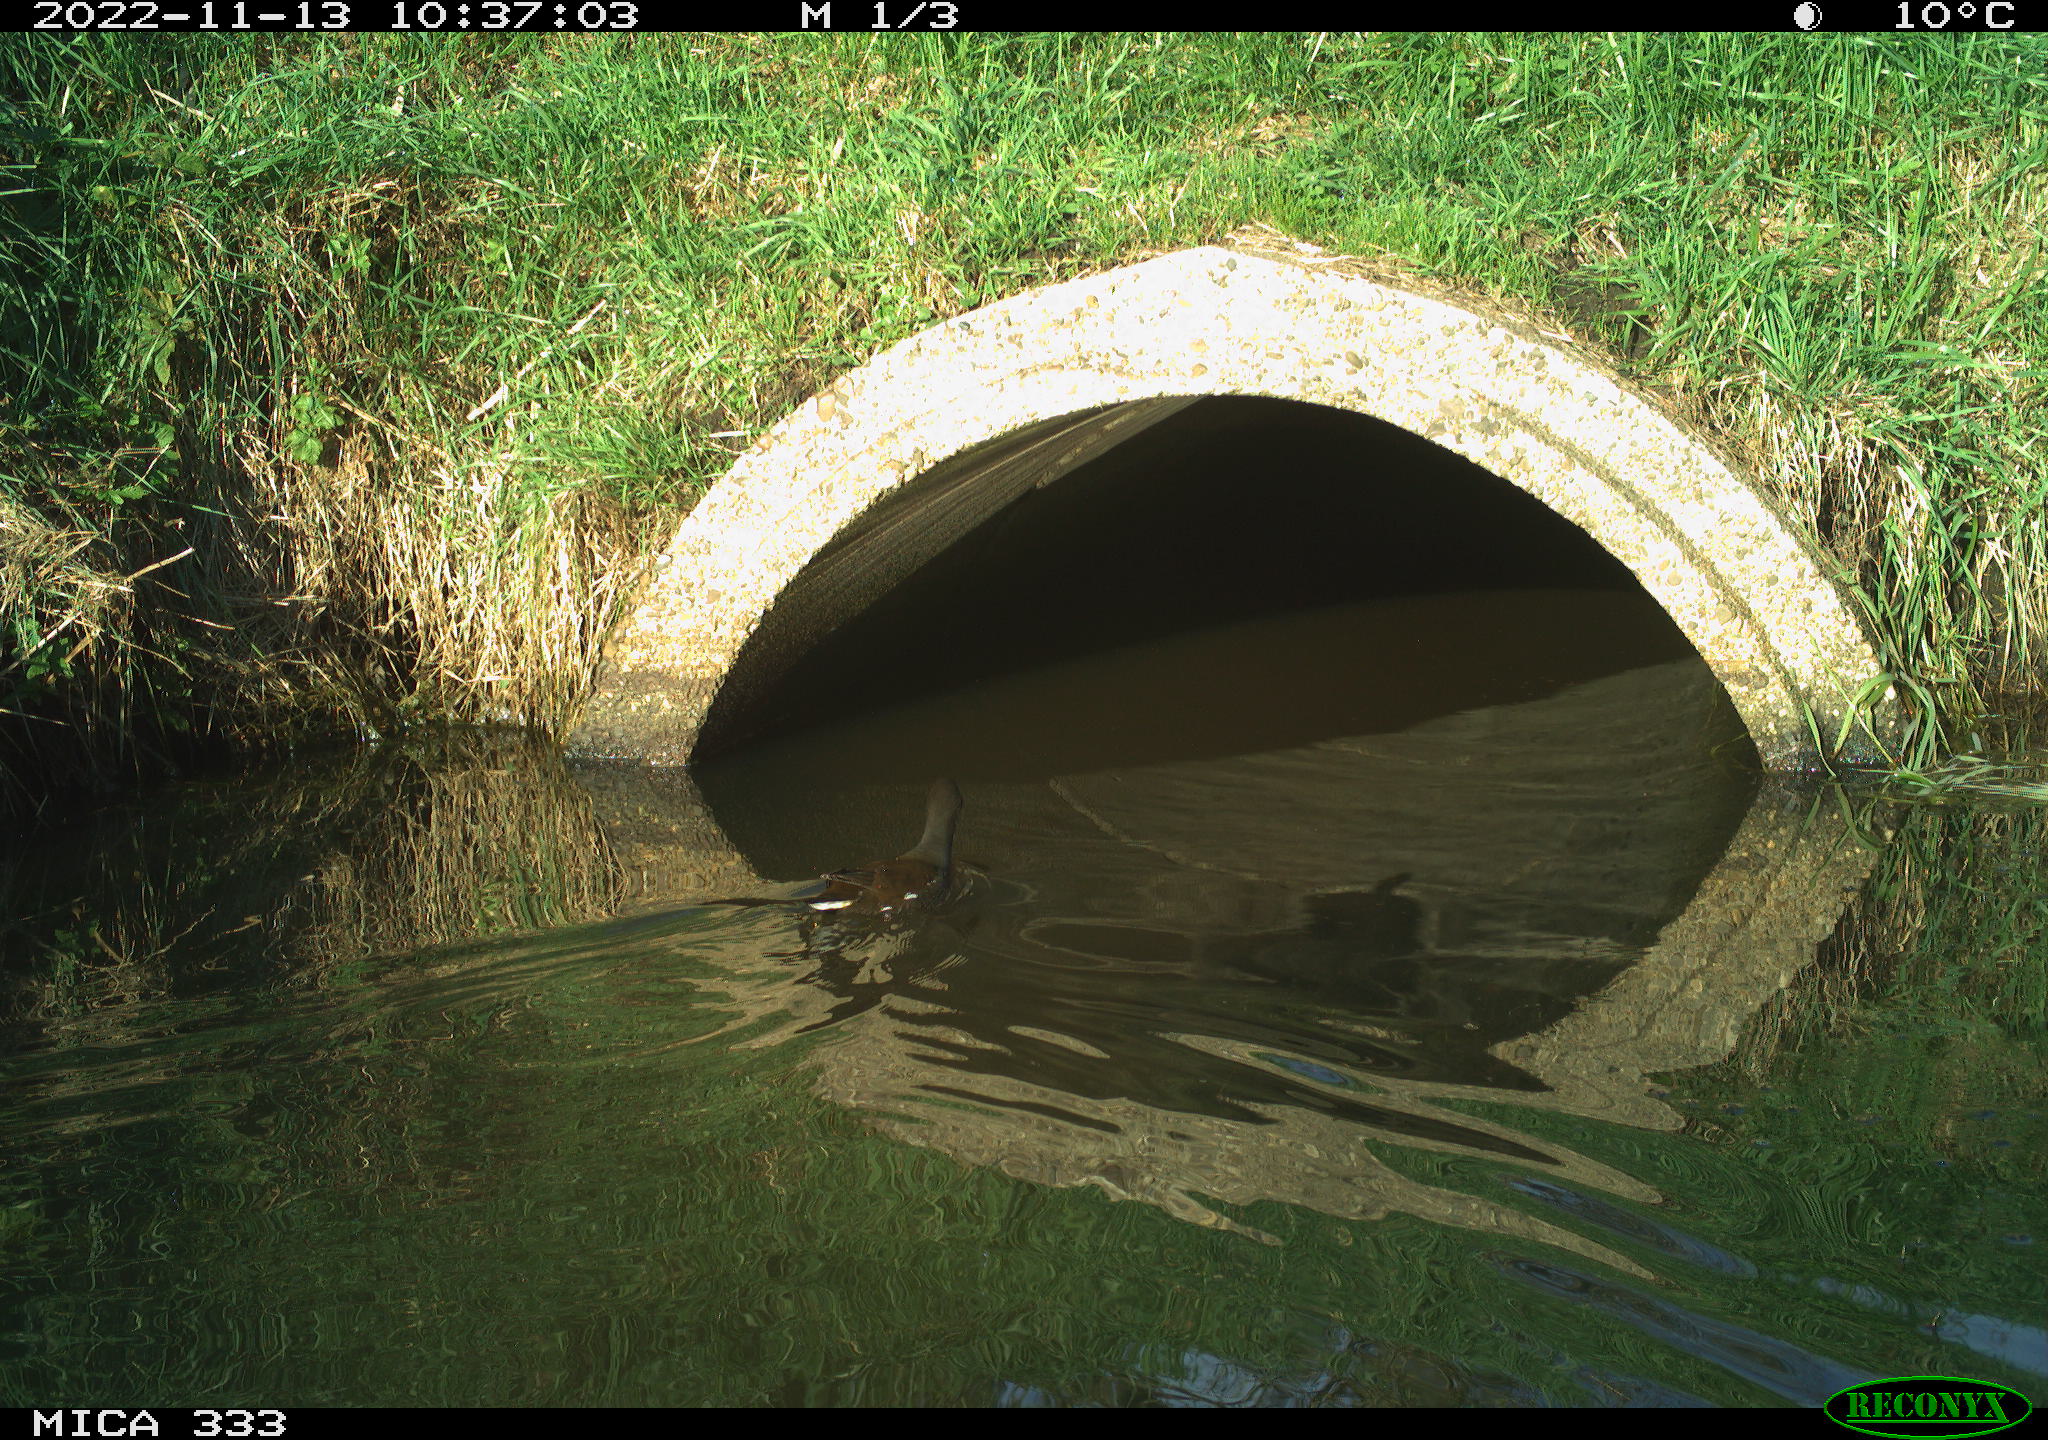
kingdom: Animalia
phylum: Chordata
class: Aves
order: Gruiformes
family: Rallidae
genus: Gallinula
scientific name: Gallinula chloropus
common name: Common moorhen
